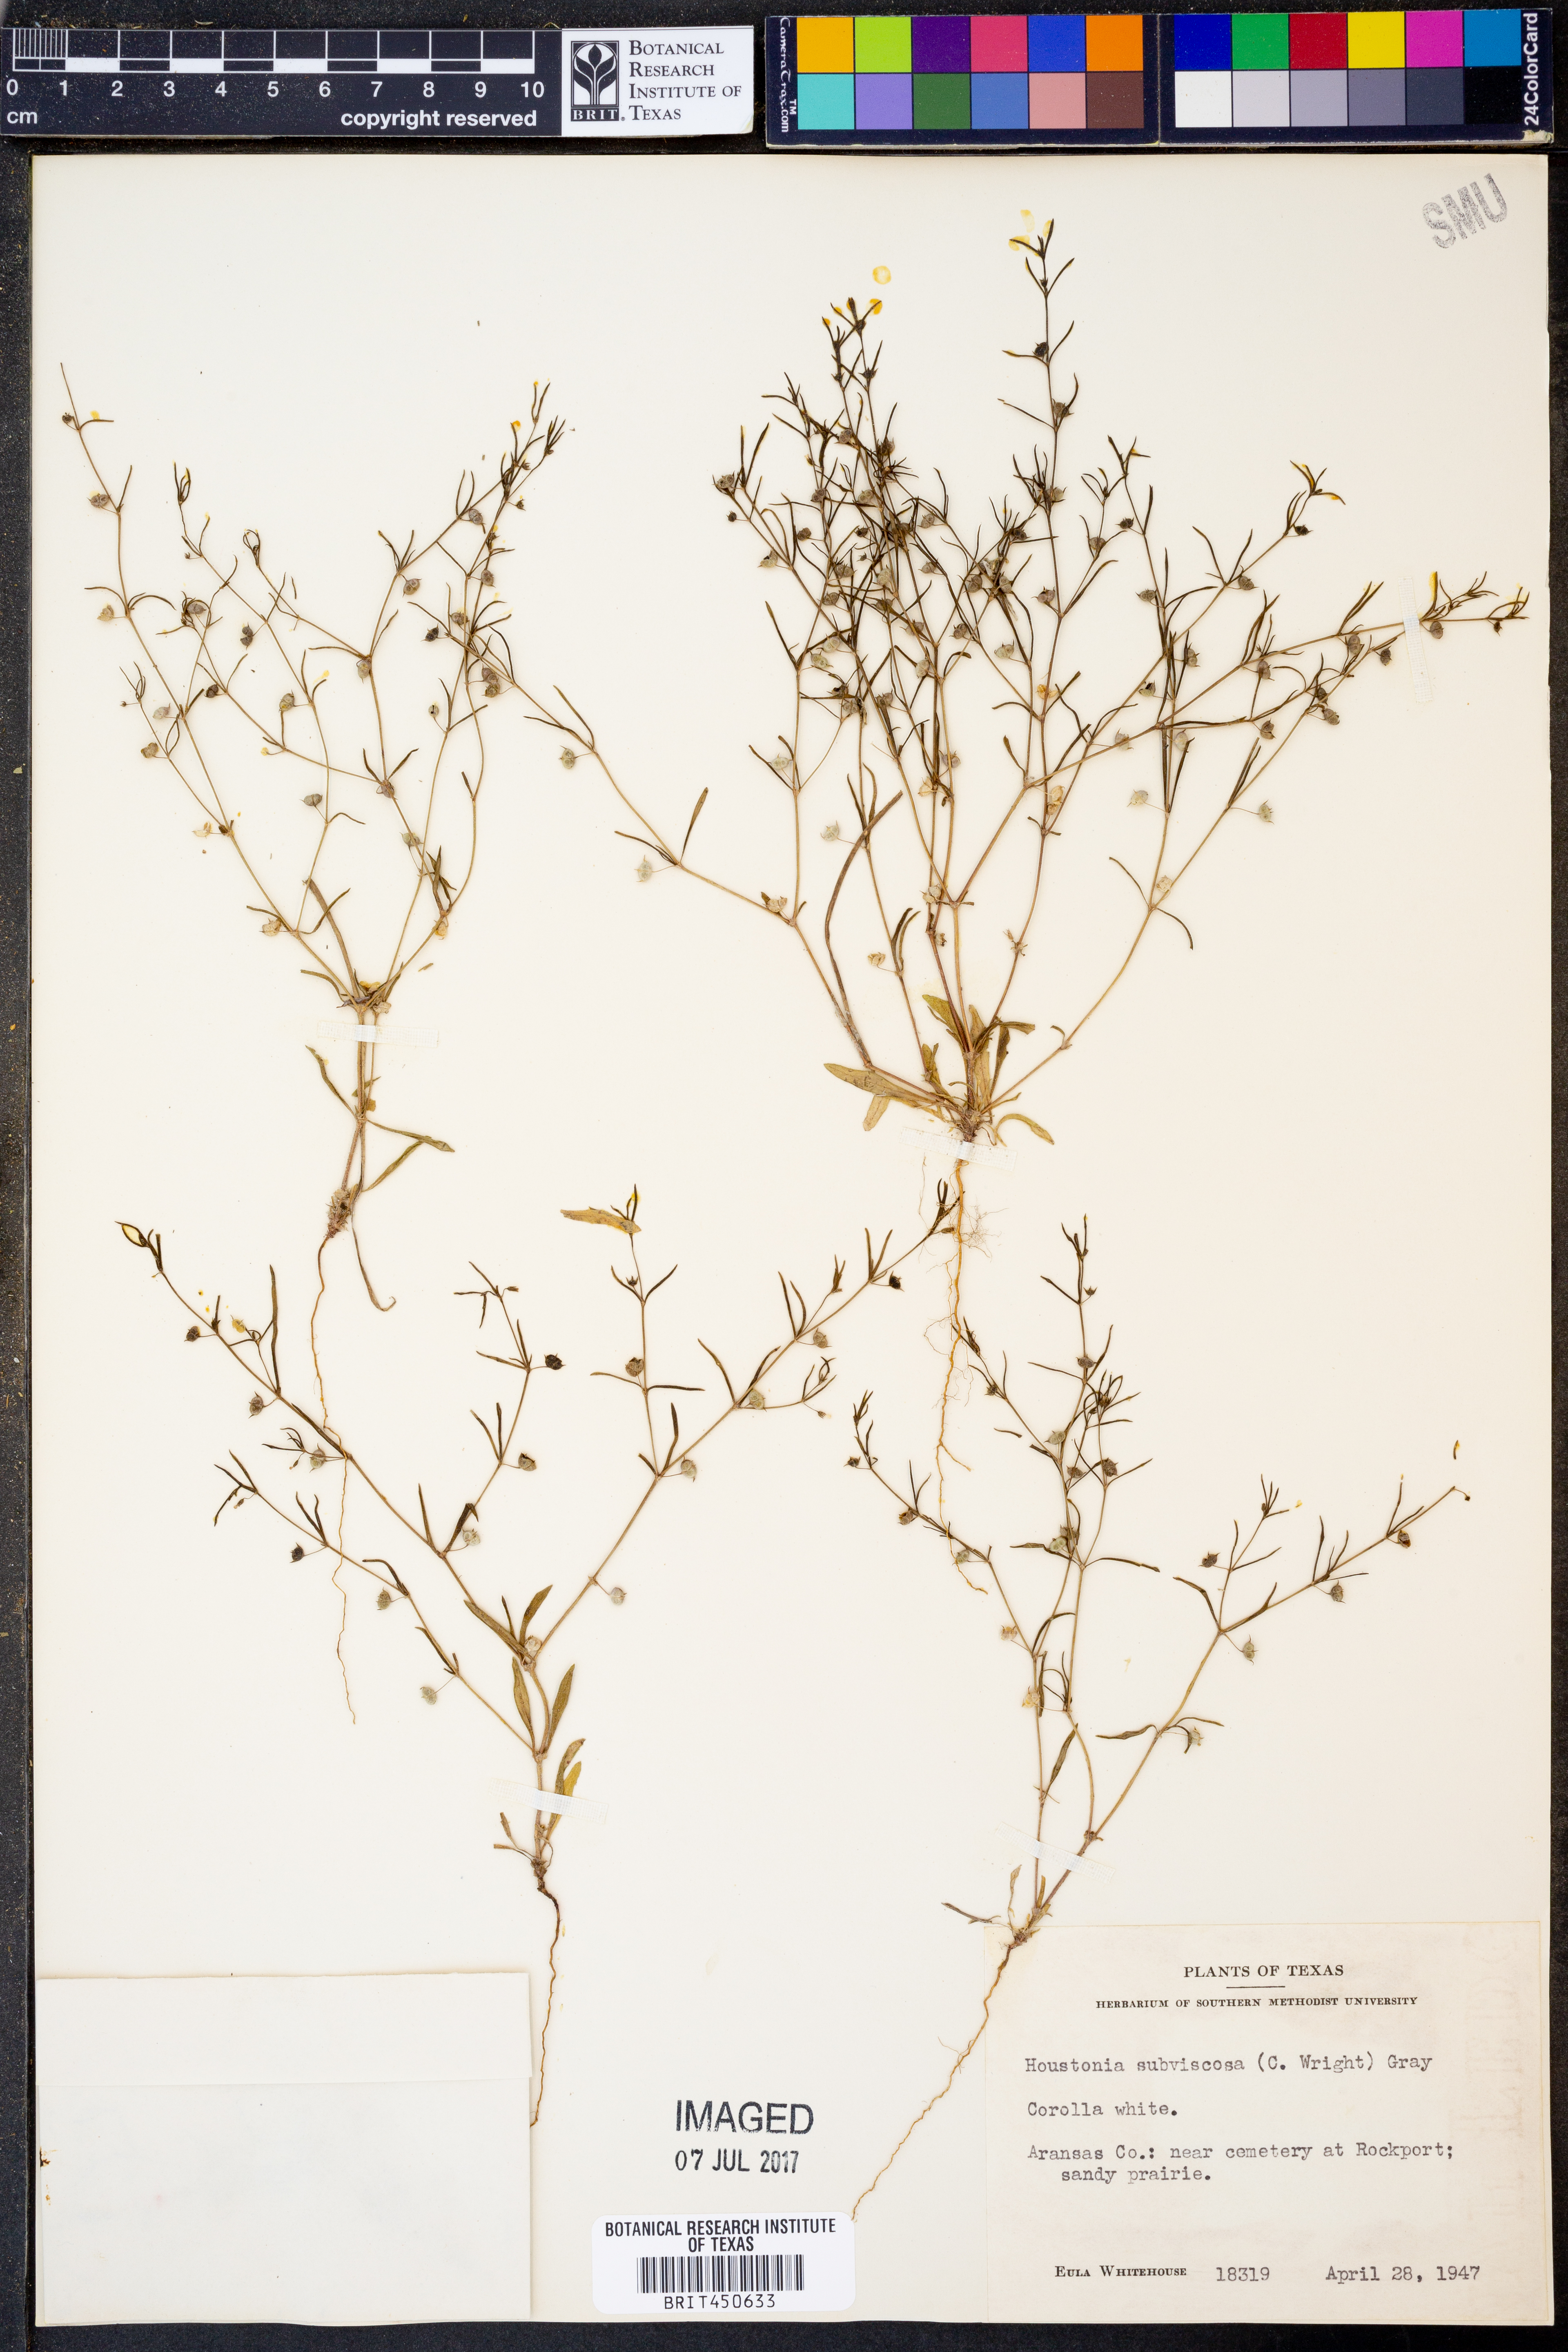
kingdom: Plantae
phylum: Tracheophyta
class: Magnoliopsida
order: Gentianales
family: Rubiaceae
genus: Houstonia
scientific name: Houstonia subviscosa
